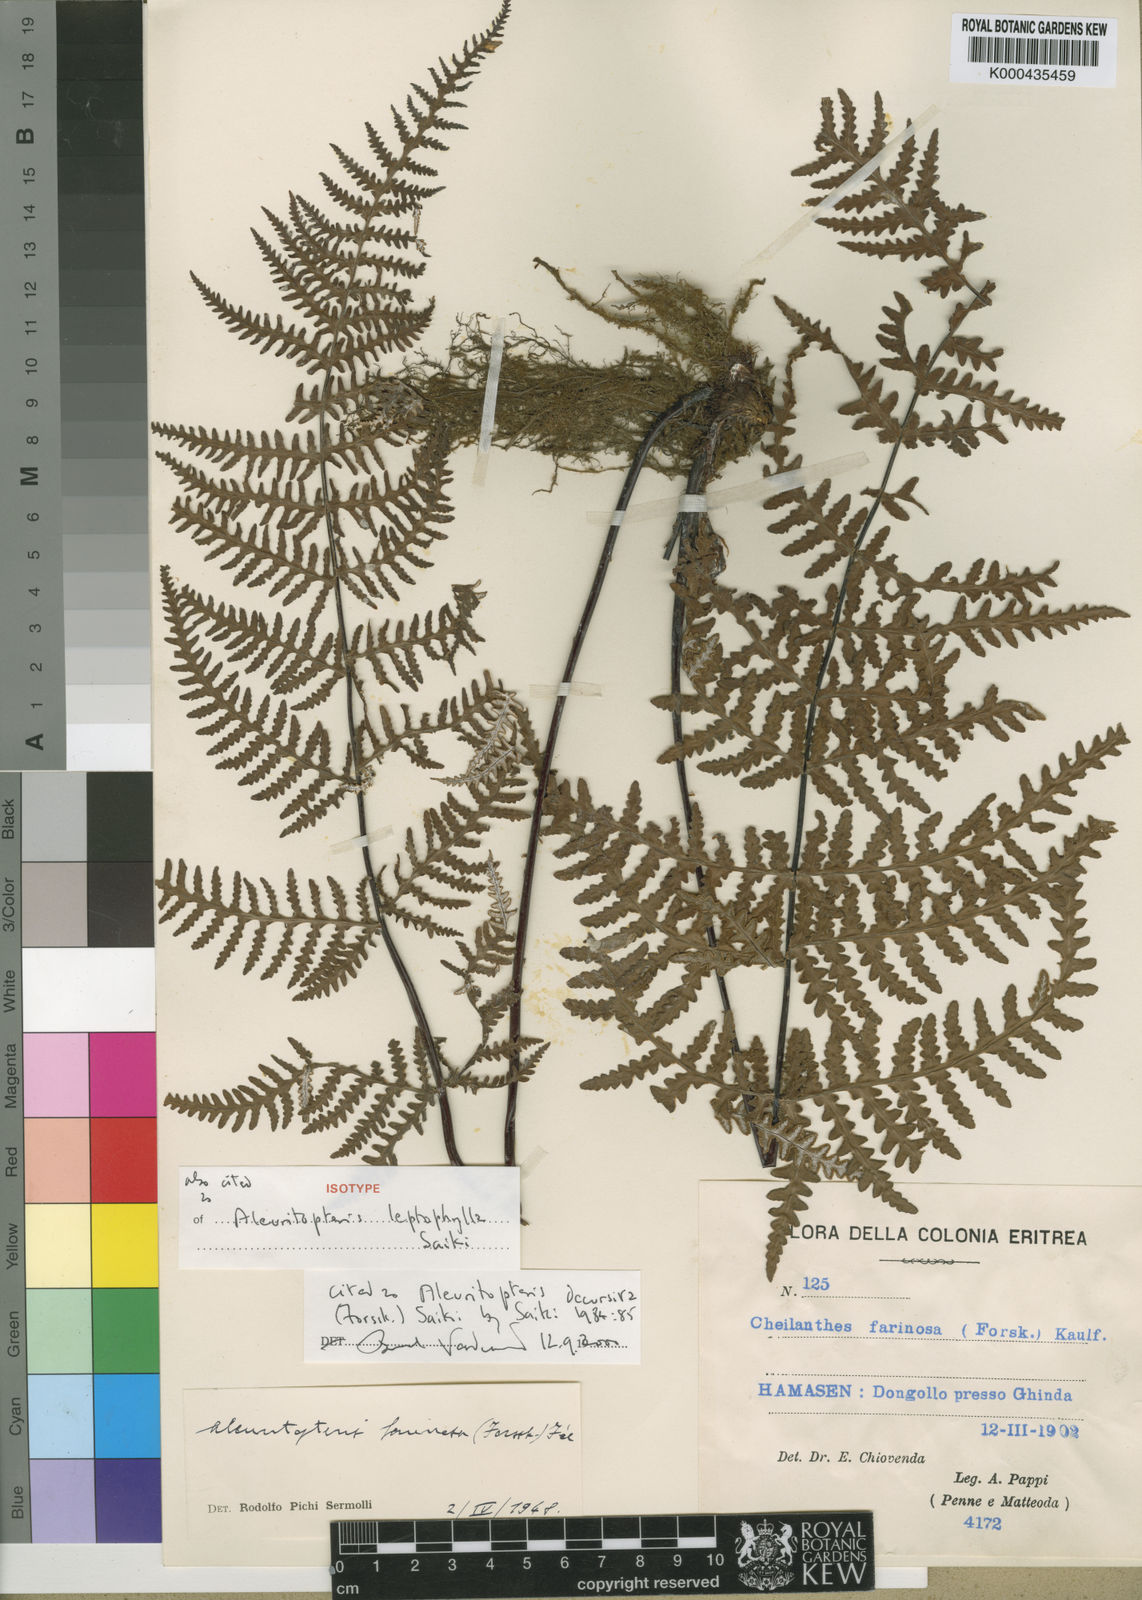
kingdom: Plantae
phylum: Tracheophyta
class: Polypodiopsida
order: Polypodiales
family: Pteridaceae
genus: Aleuritopteris
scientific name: Aleuritopteris farinosa
